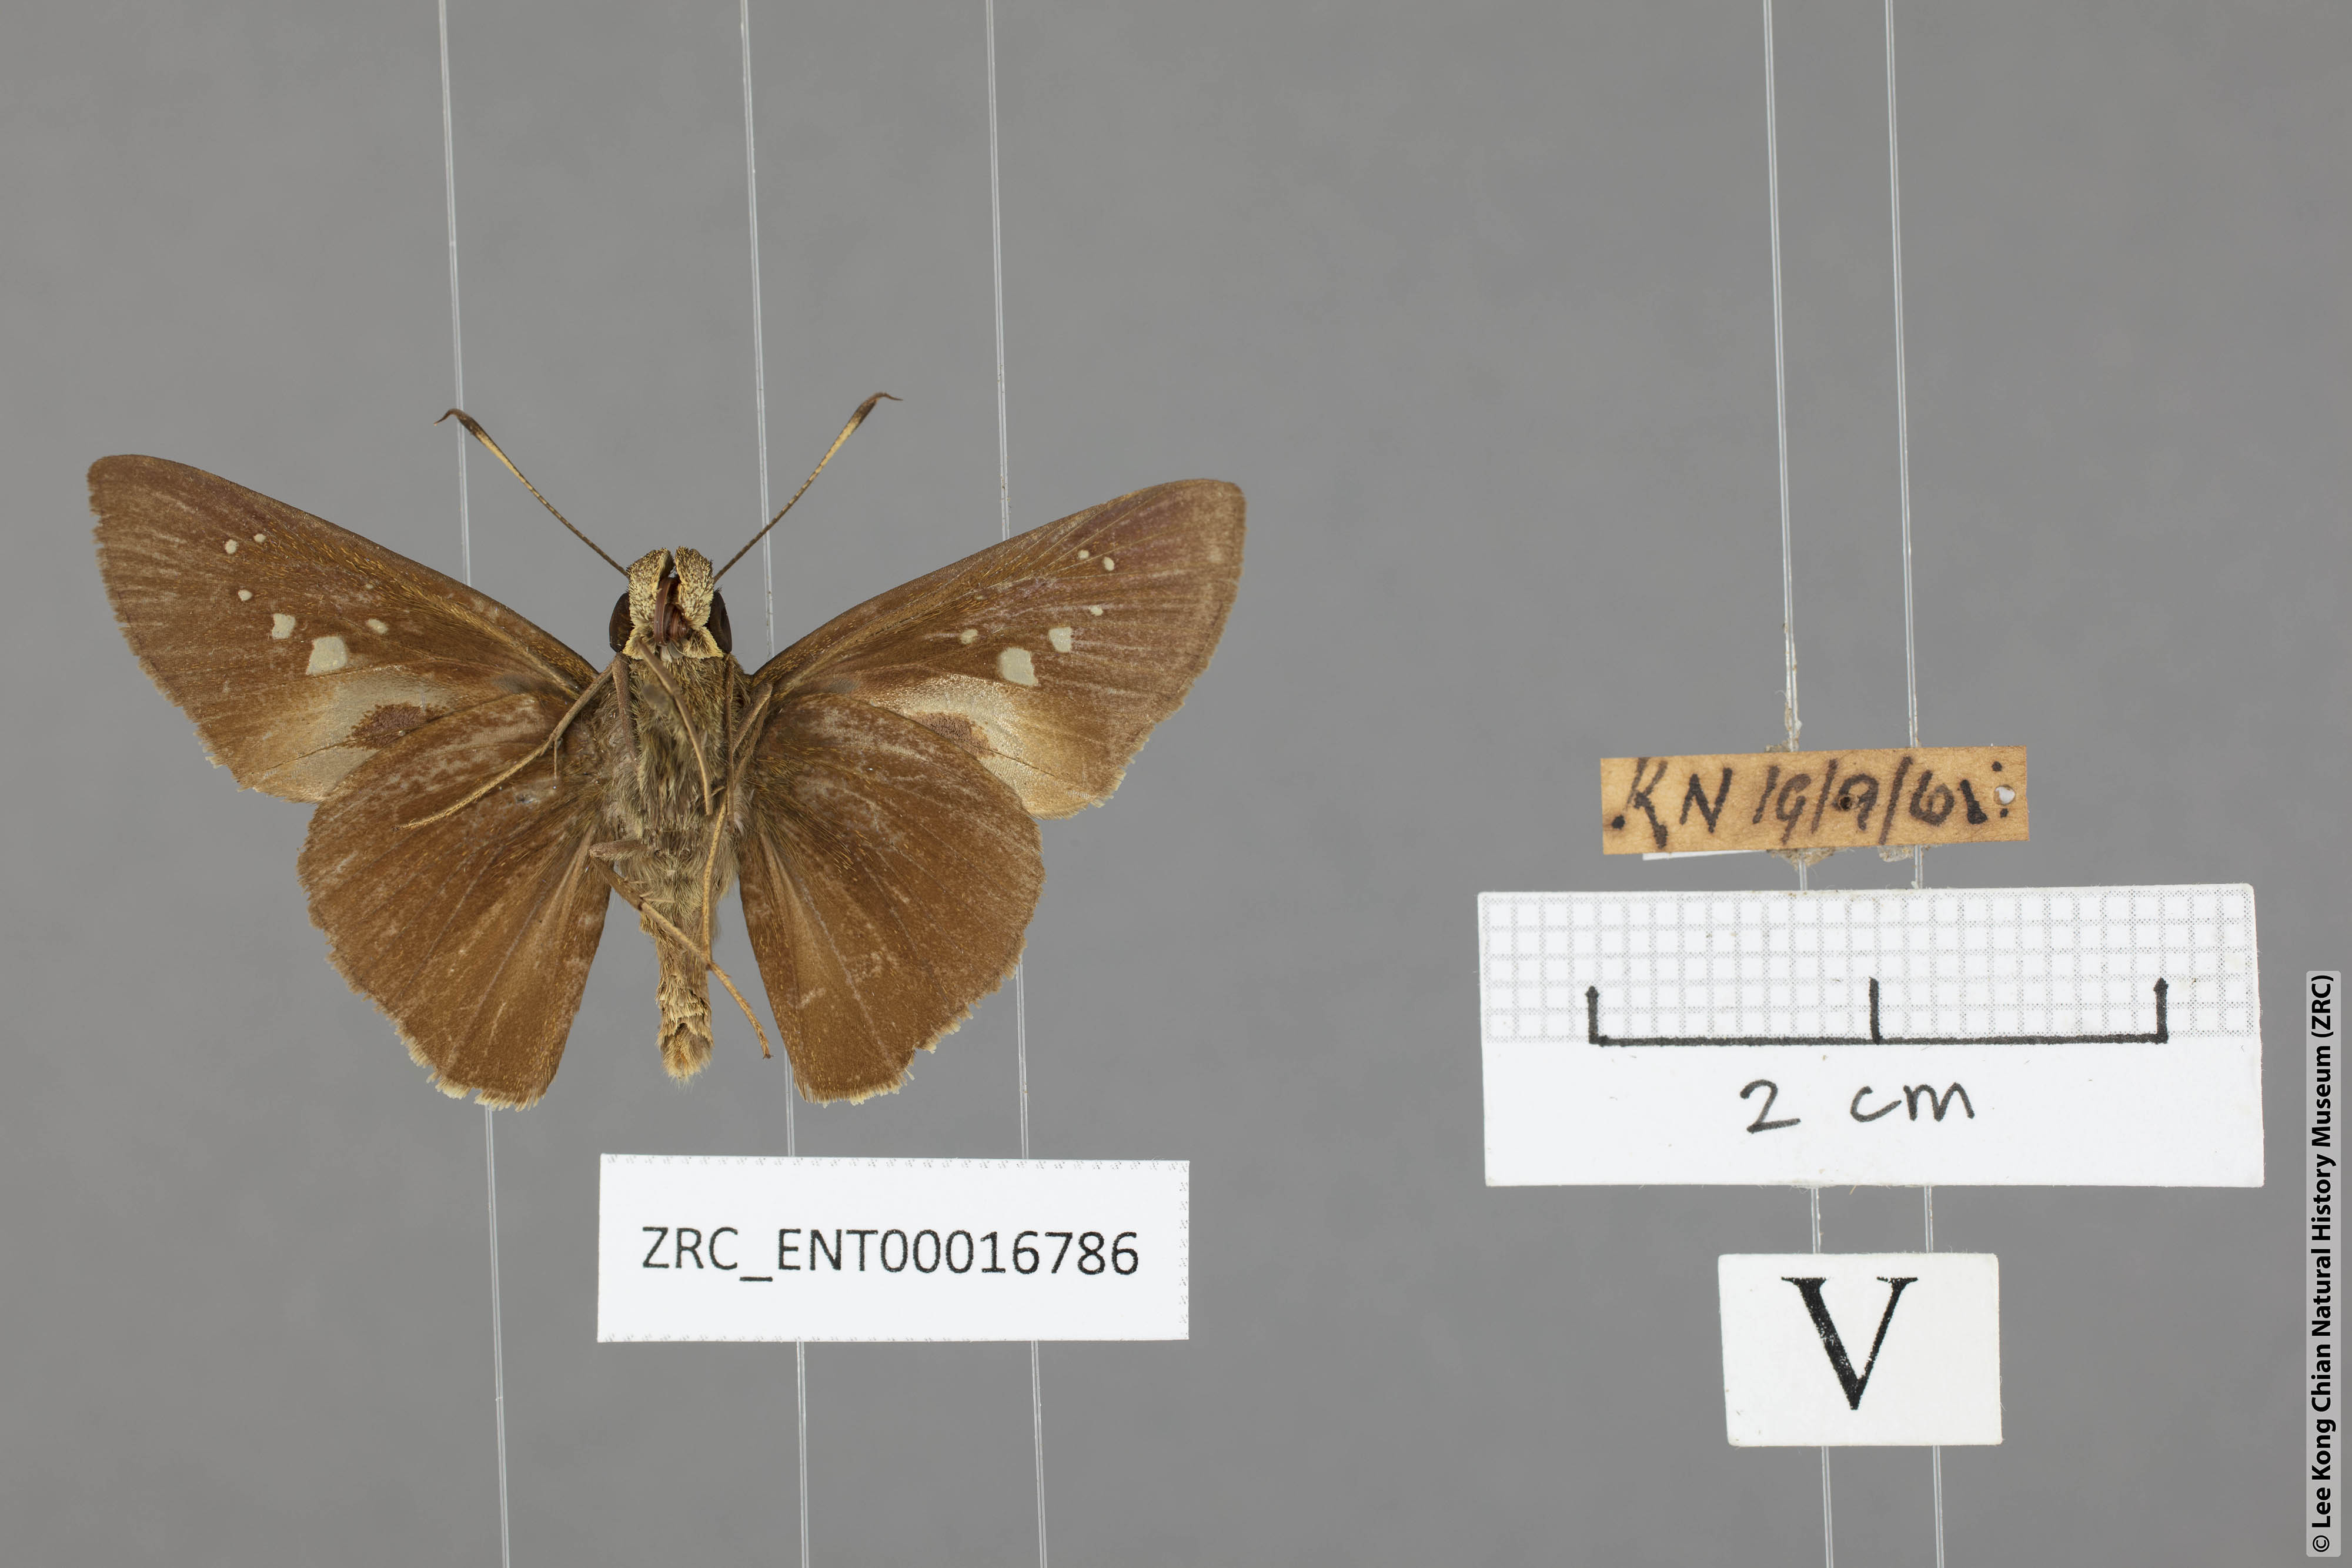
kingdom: Animalia
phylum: Arthropoda
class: Insecta
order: Lepidoptera
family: Hesperiidae
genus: Baoris
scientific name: Baoris oceia
